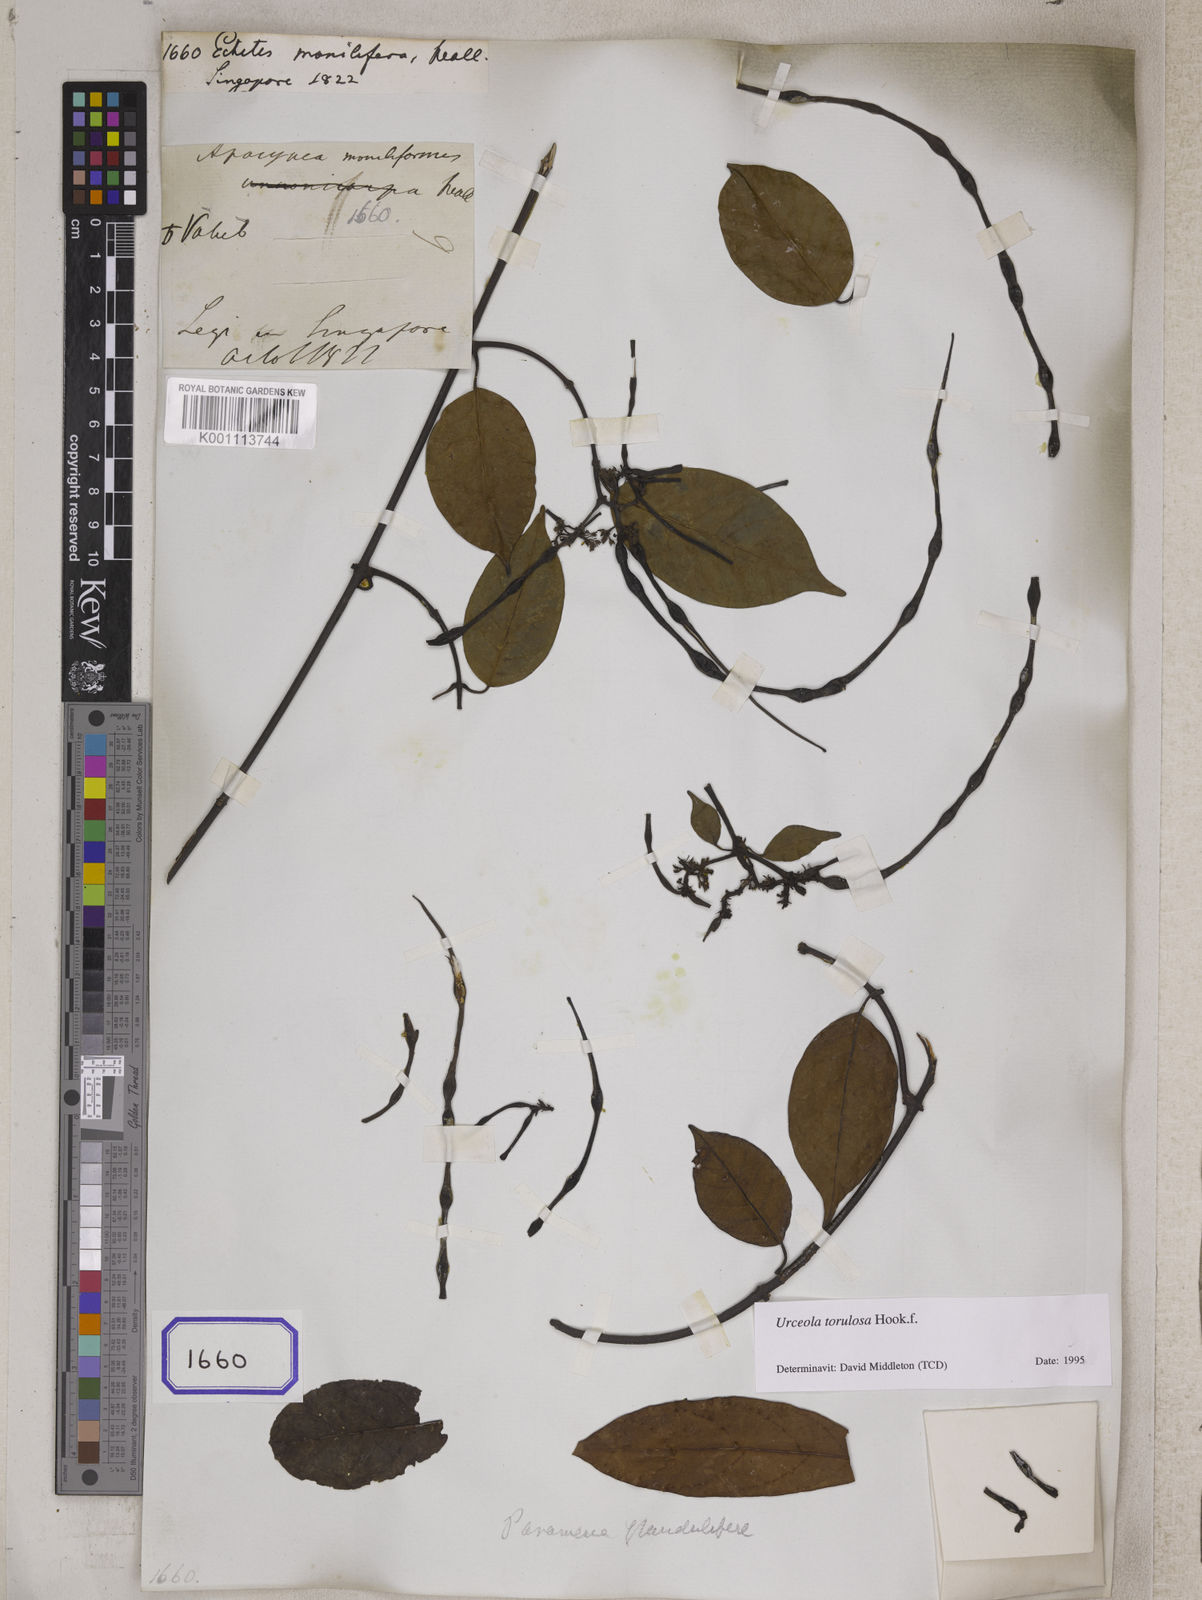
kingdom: Plantae
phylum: Tracheophyta
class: Magnoliopsida
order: Gentianales
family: Apocynaceae
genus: Echites
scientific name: Echites
